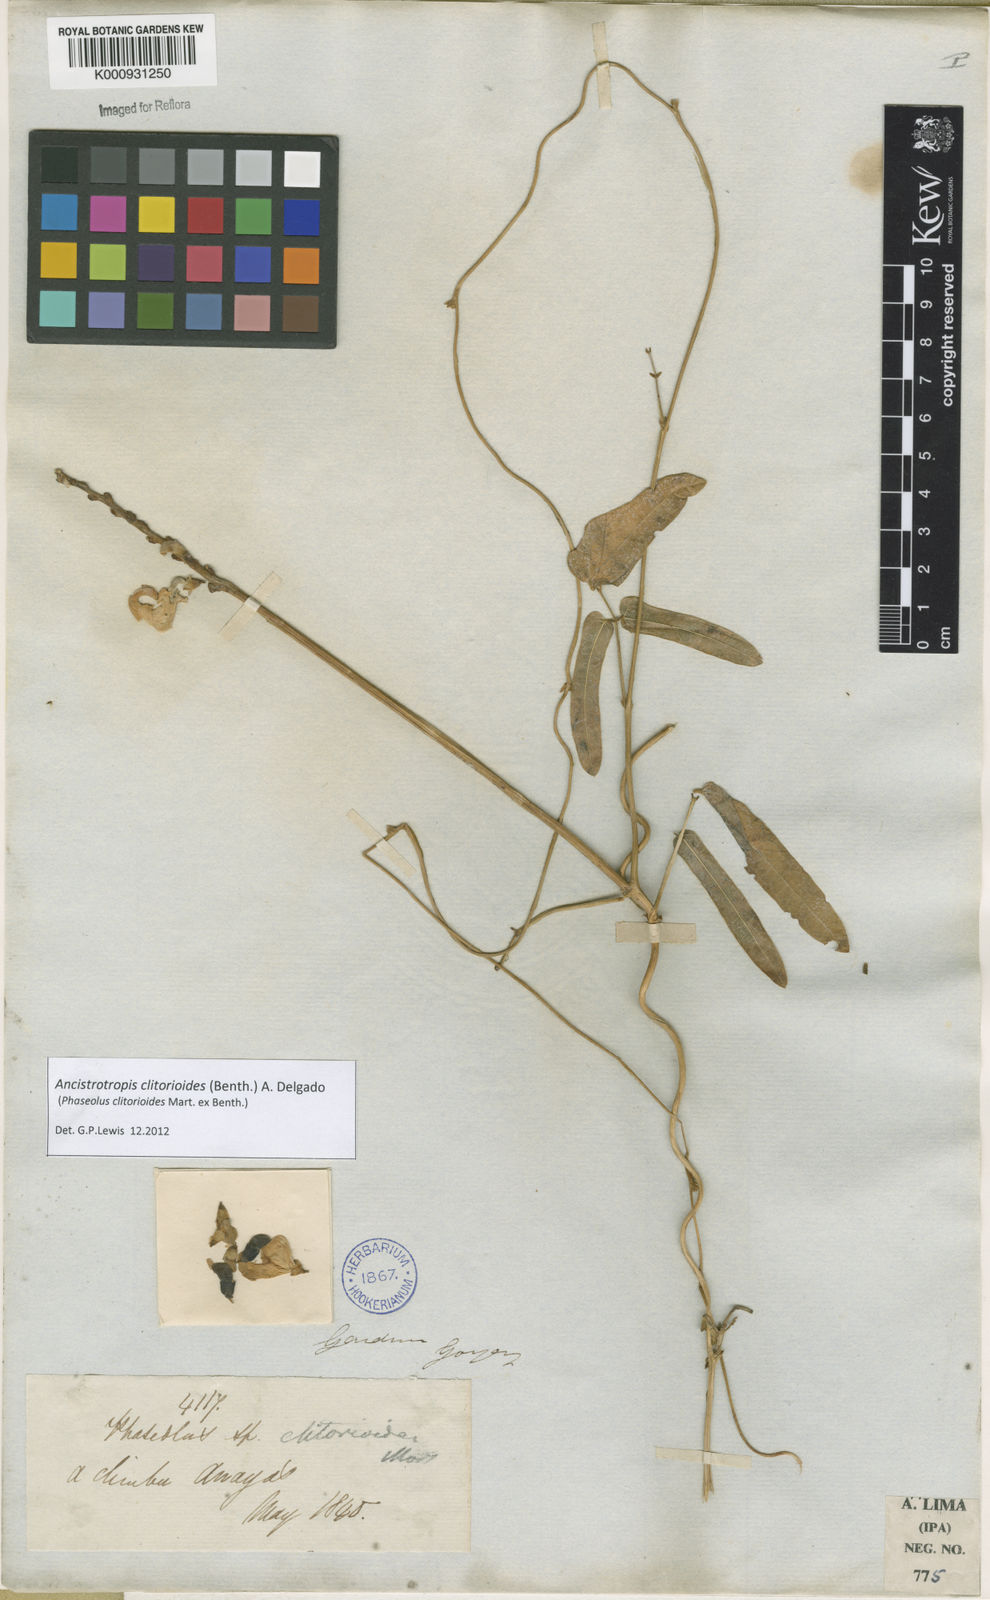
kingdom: Plantae
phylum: Tracheophyta
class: Magnoliopsida
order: Fabales
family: Fabaceae
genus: Ancistrotropis
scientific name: Ancistrotropis clitorioides
